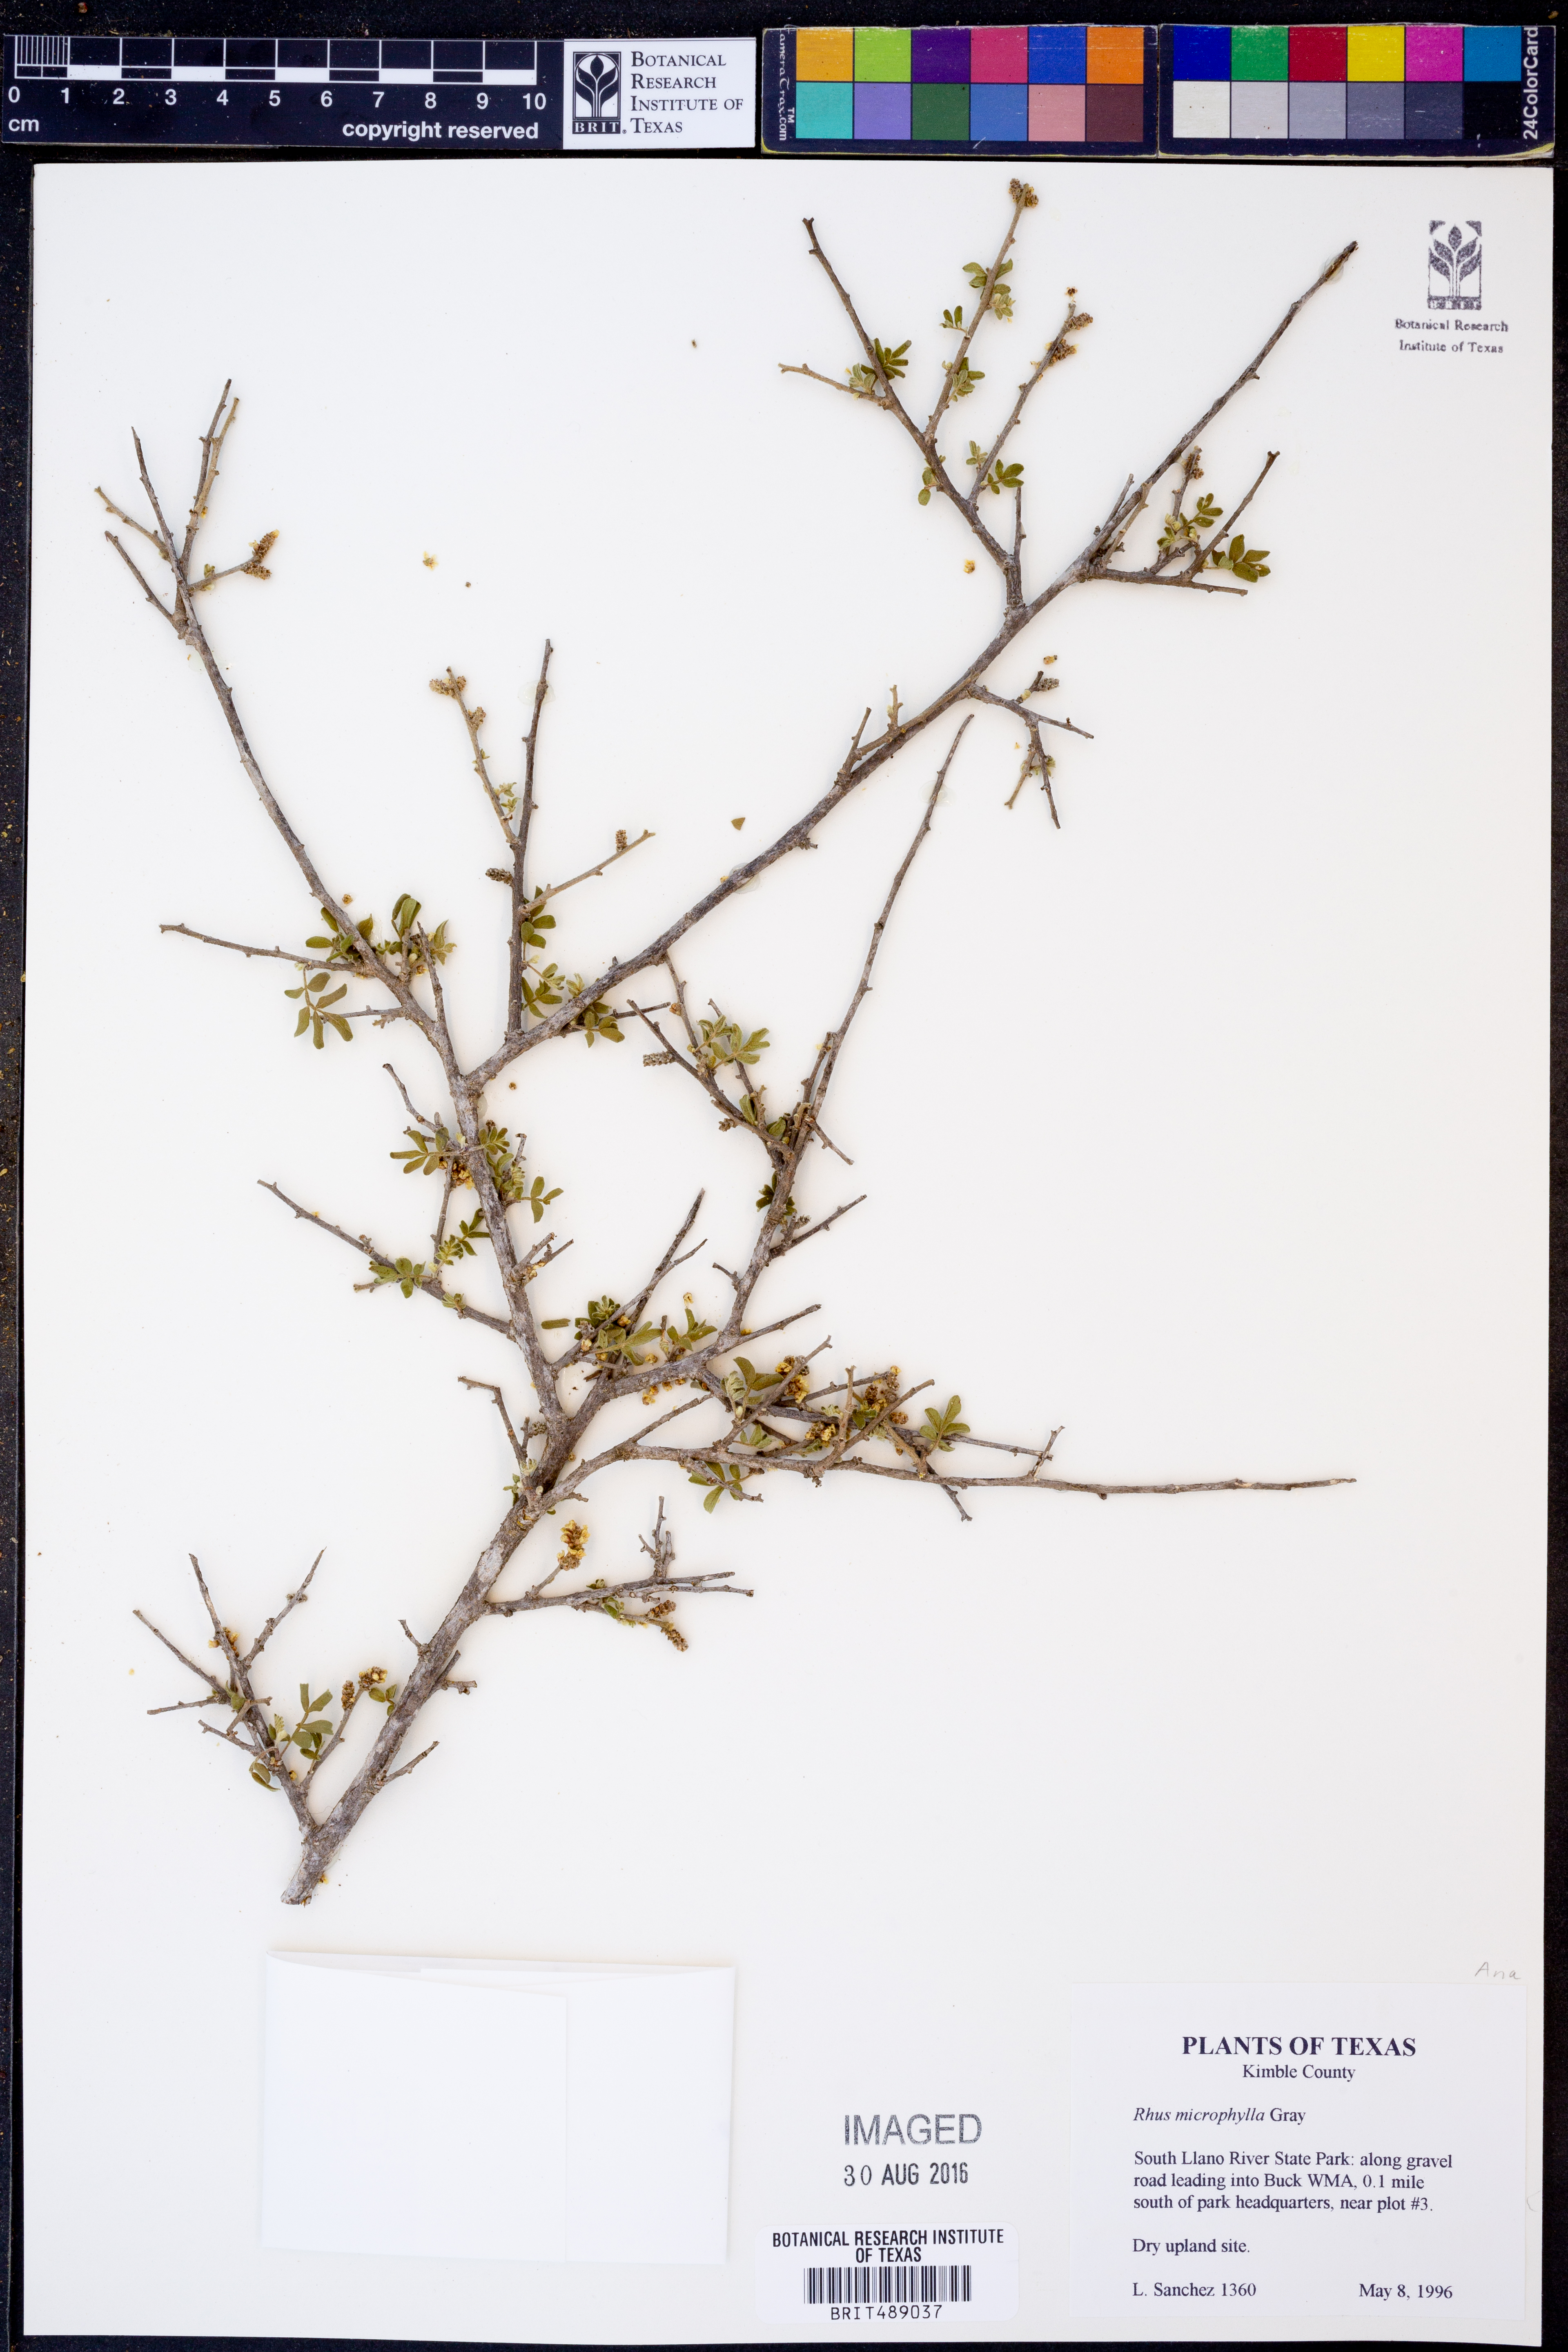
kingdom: Plantae
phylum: Tracheophyta
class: Magnoliopsida
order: Sapindales
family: Anacardiaceae
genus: Rhus
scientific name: Rhus microphylla
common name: Desert sumac
